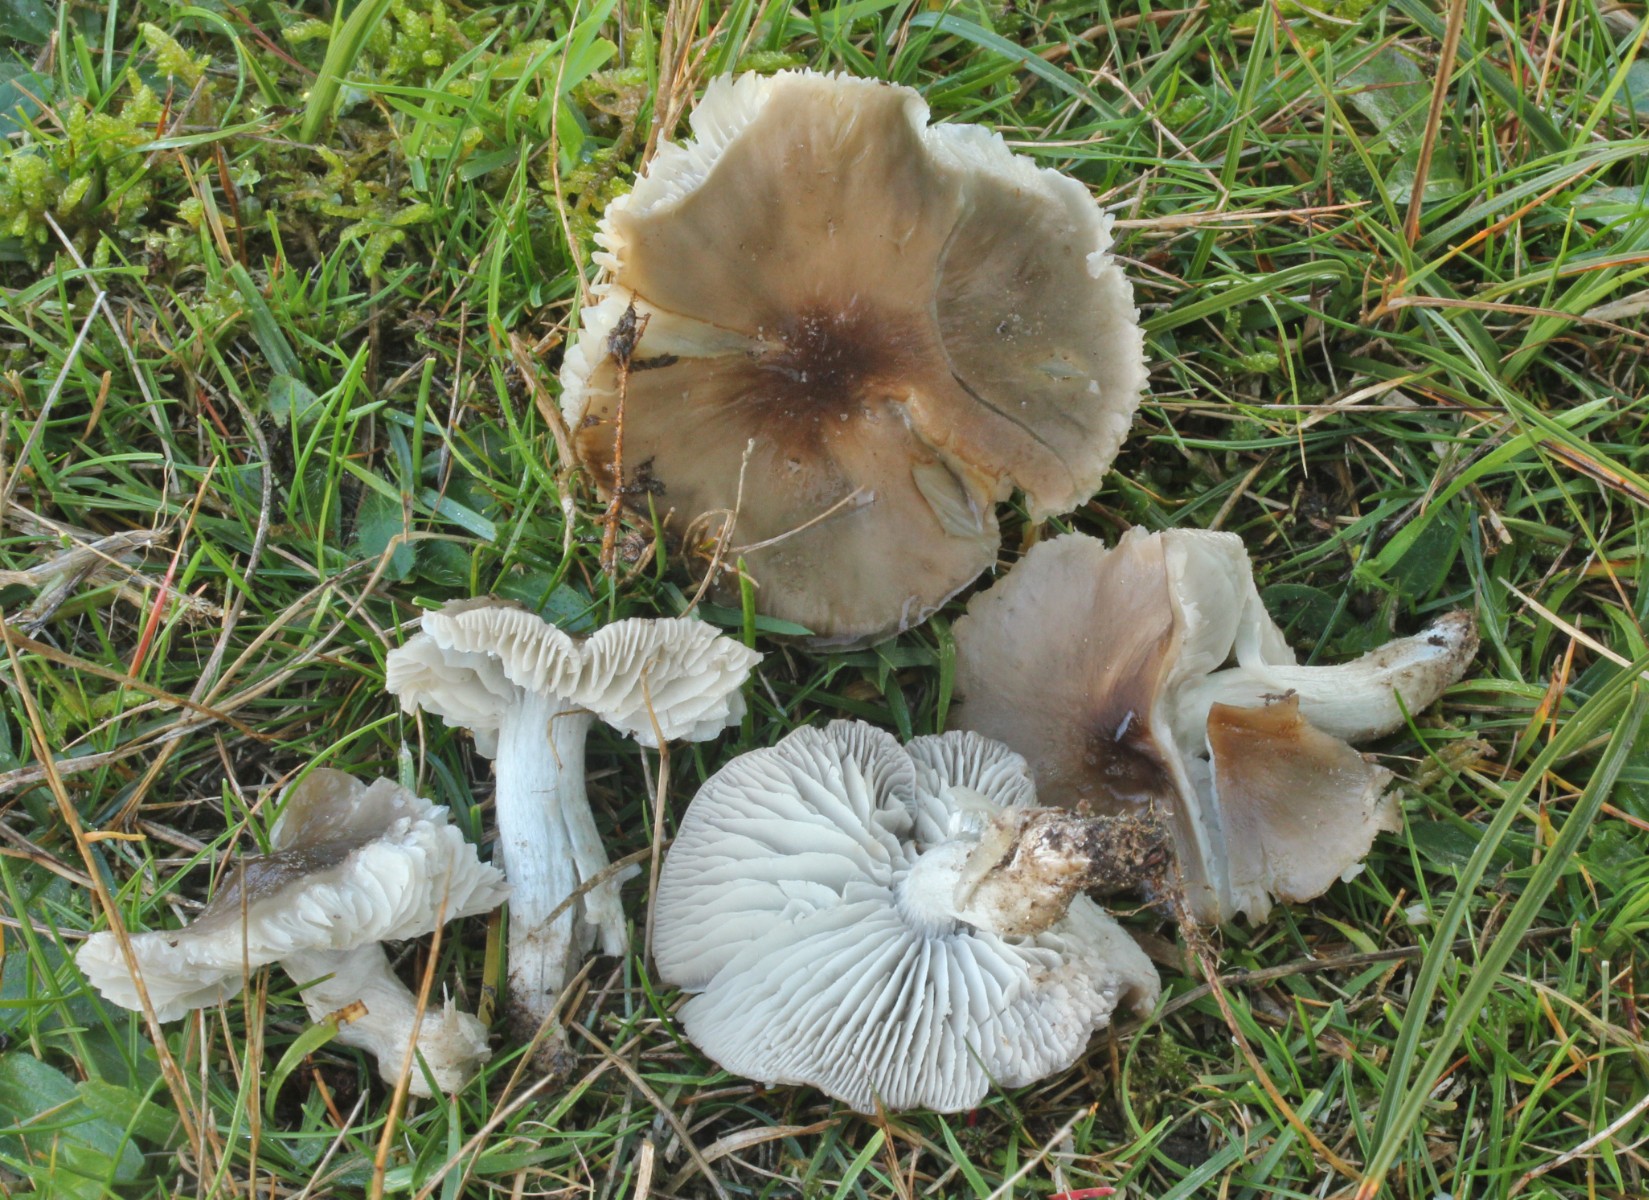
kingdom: Fungi
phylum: Basidiomycota
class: Agaricomycetes
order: Agaricales
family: Tricholomataceae
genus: Dermoloma
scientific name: Dermoloma cuneifolium
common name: eng-nonnehat
